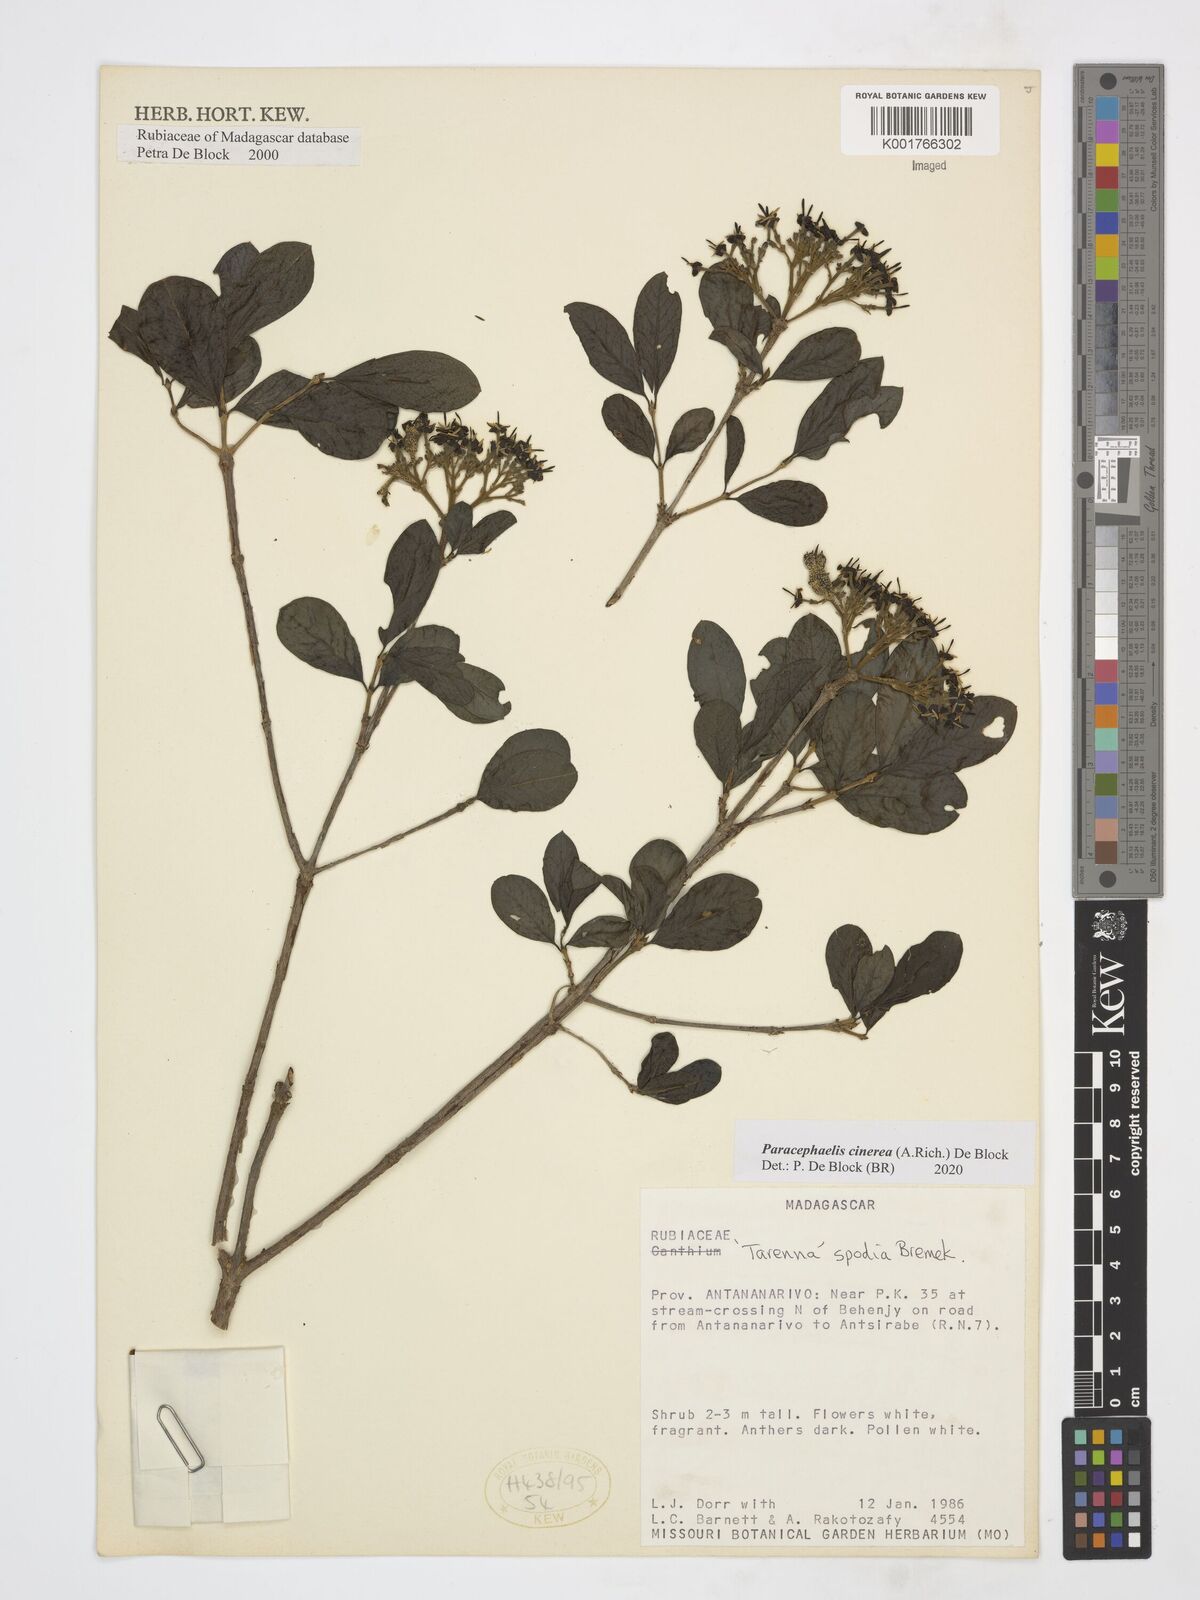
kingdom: Plantae
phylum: Tracheophyta
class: Magnoliopsida
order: Gentianales
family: Rubiaceae
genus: Paracephaelis
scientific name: Paracephaelis cinerea
